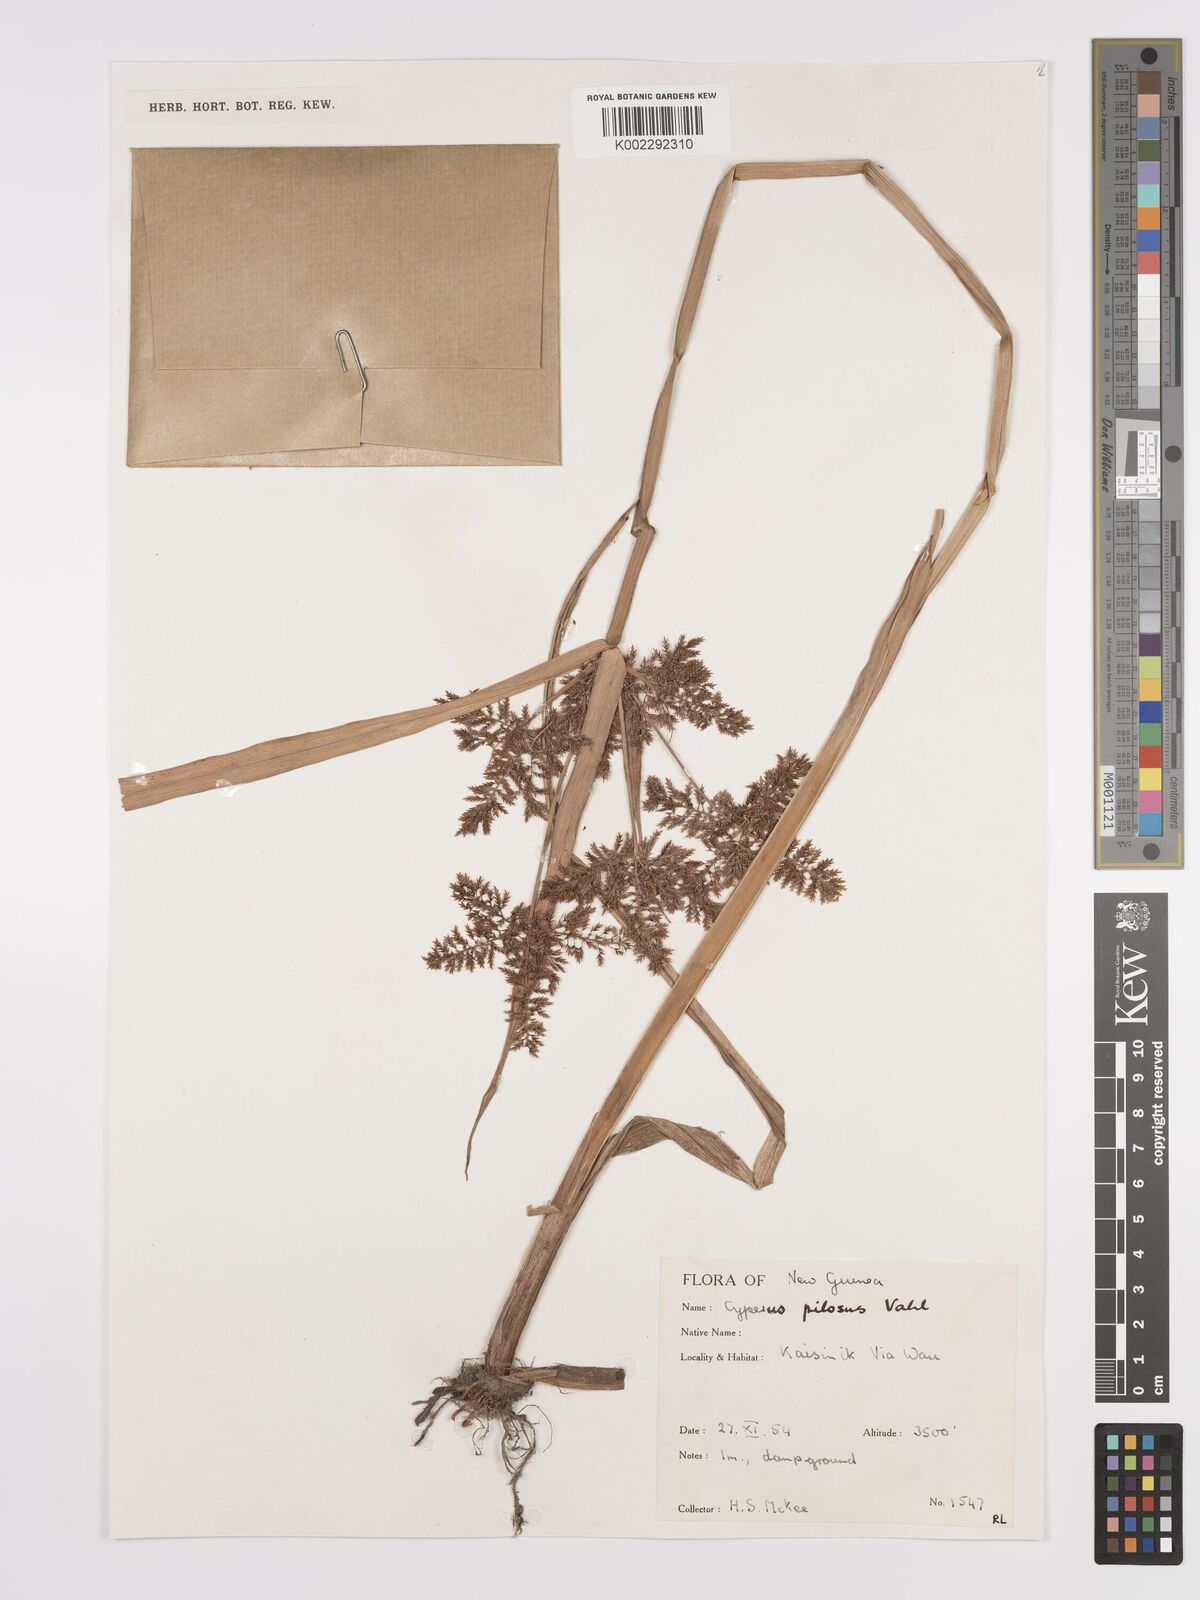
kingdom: Plantae
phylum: Tracheophyta
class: Liliopsida
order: Poales
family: Cyperaceae
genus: Cyperus
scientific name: Cyperus pilosus
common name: Fuzzy flatsedge
